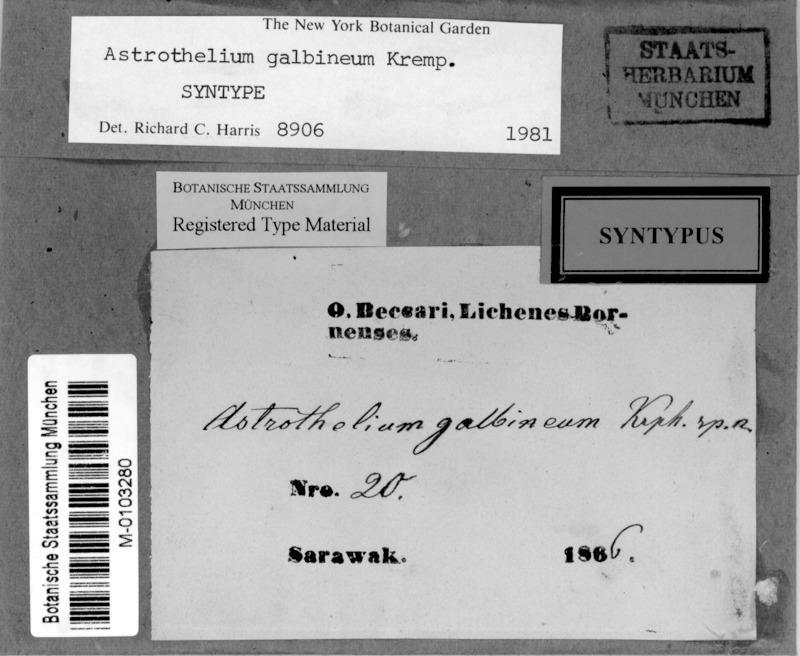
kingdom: Fungi
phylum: Ascomycota
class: Dothideomycetes
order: Trypetheliales
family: Trypetheliaceae
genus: Astrothelium
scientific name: Astrothelium galbineum
